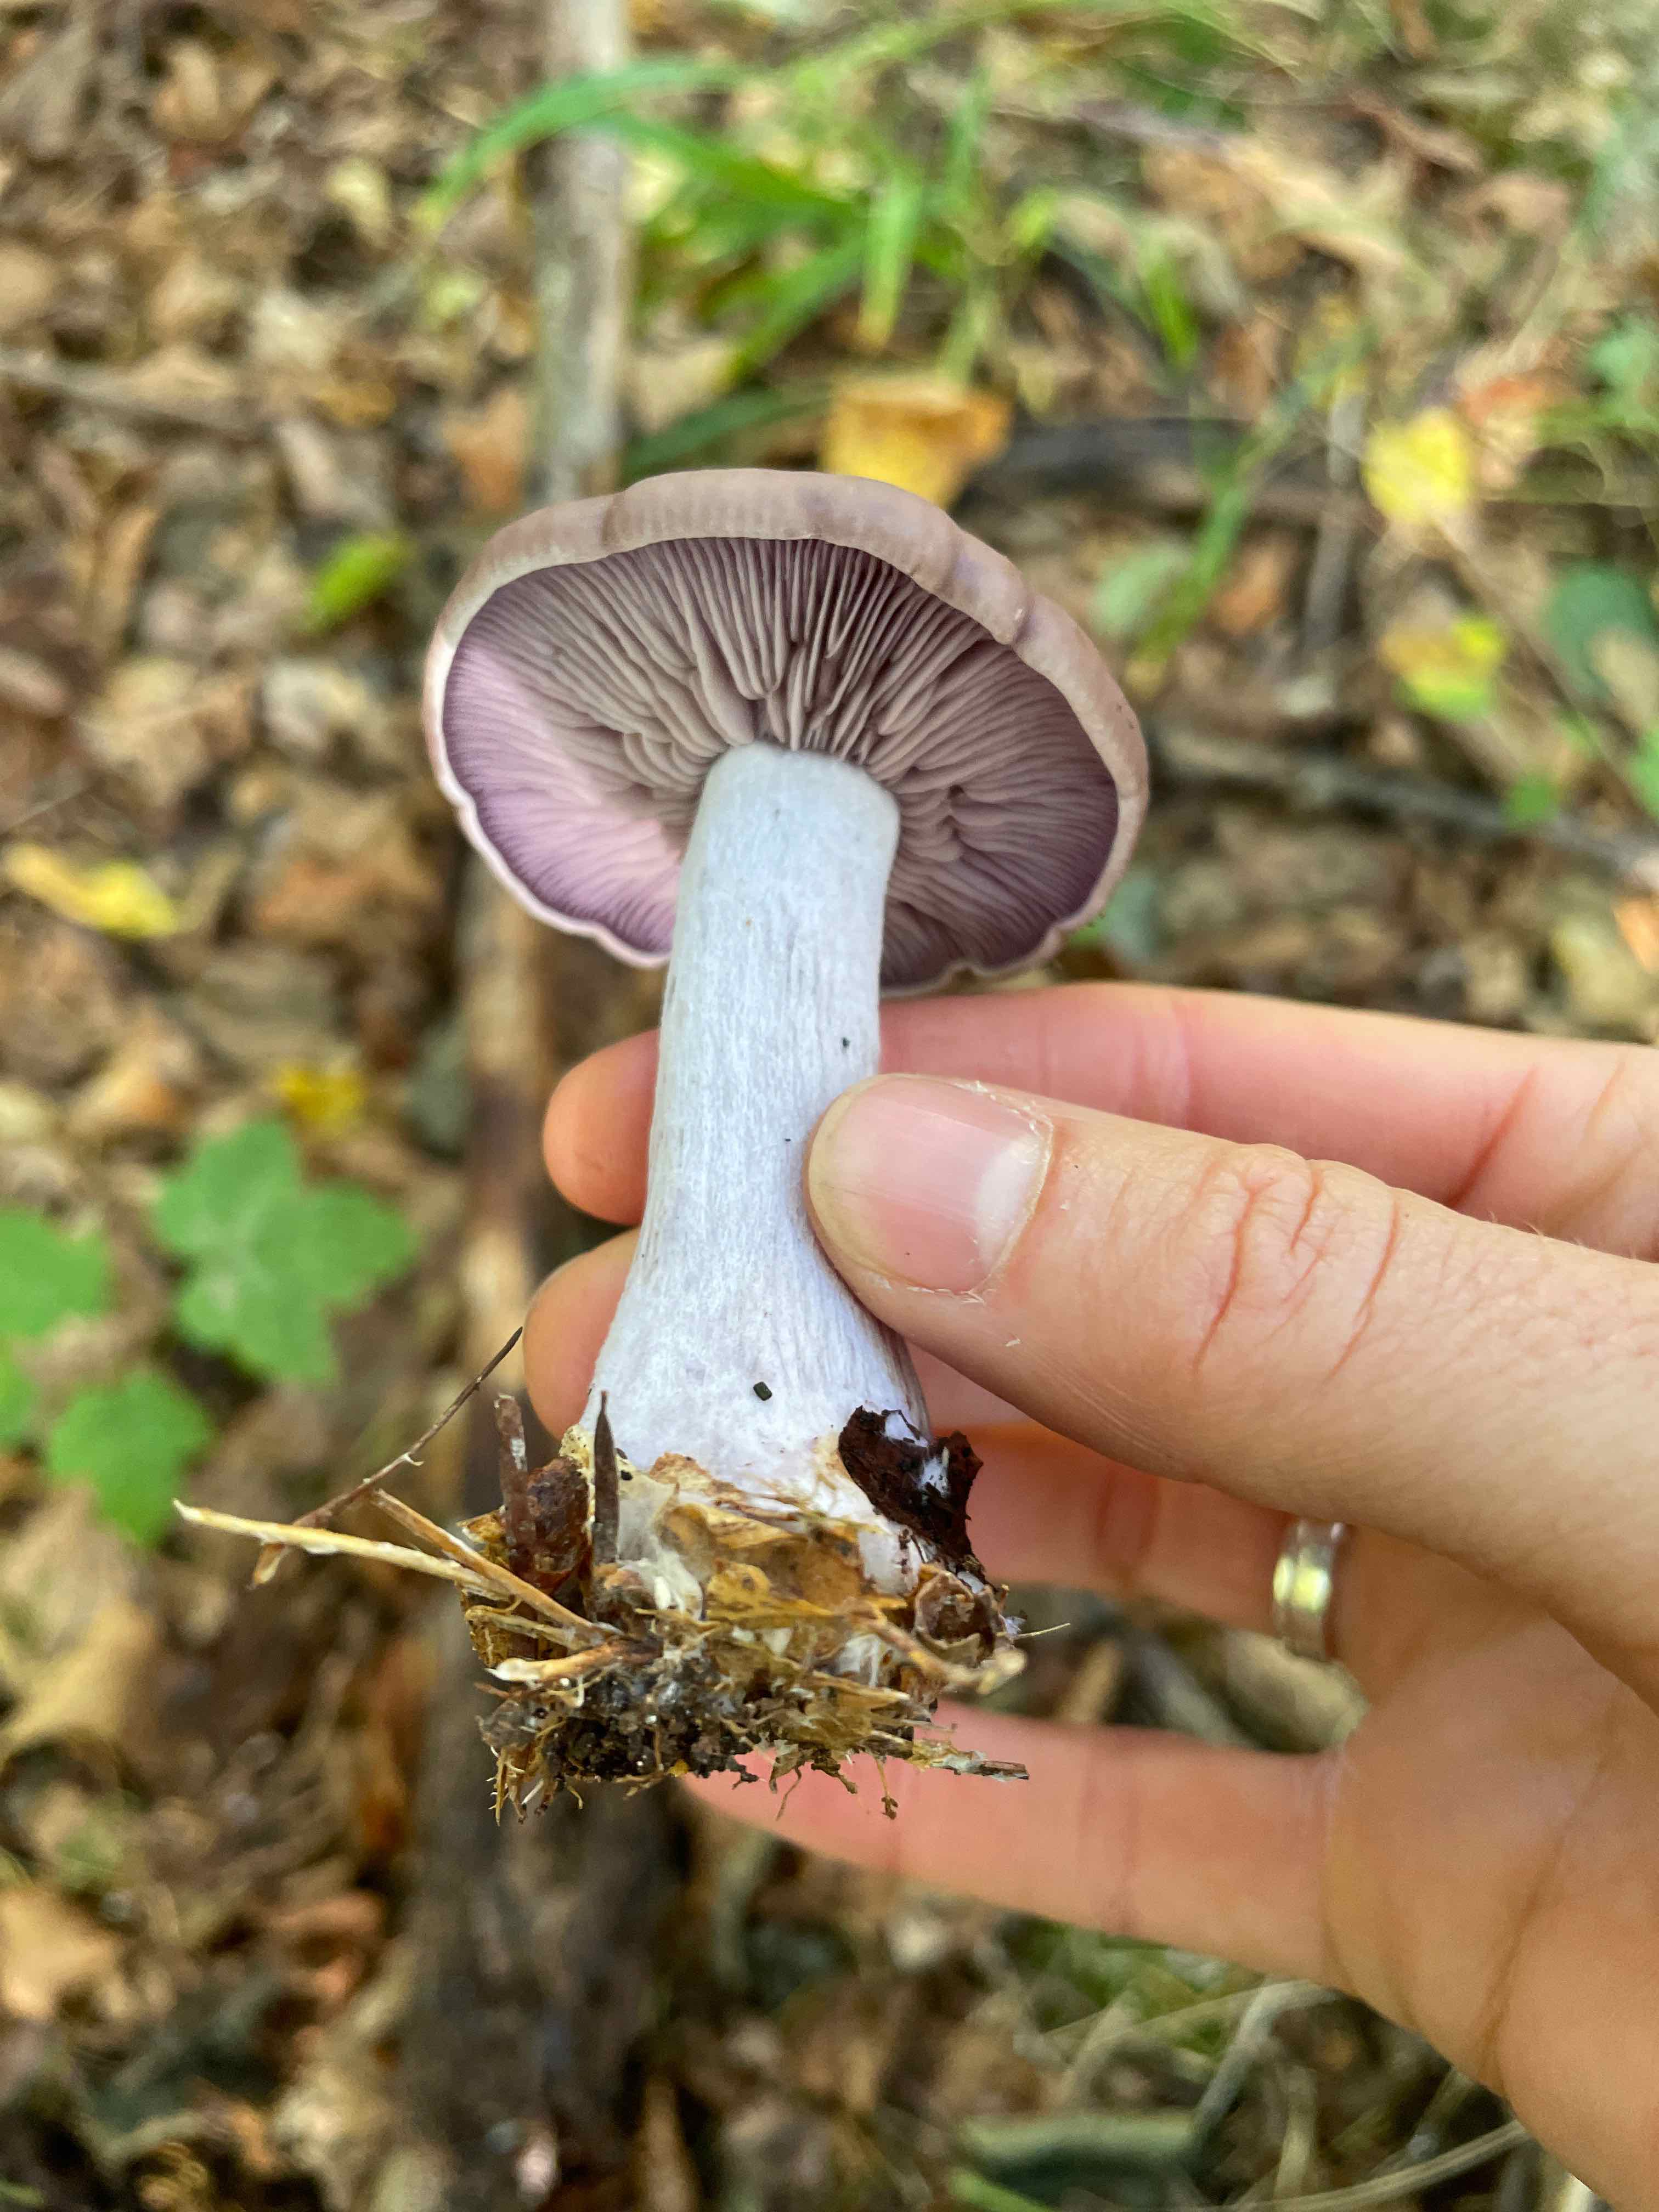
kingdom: Fungi
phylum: Basidiomycota
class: Agaricomycetes
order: Agaricales
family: Tricholomataceae
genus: Lepista
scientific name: Lepista nuda
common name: violet hekseringshat
